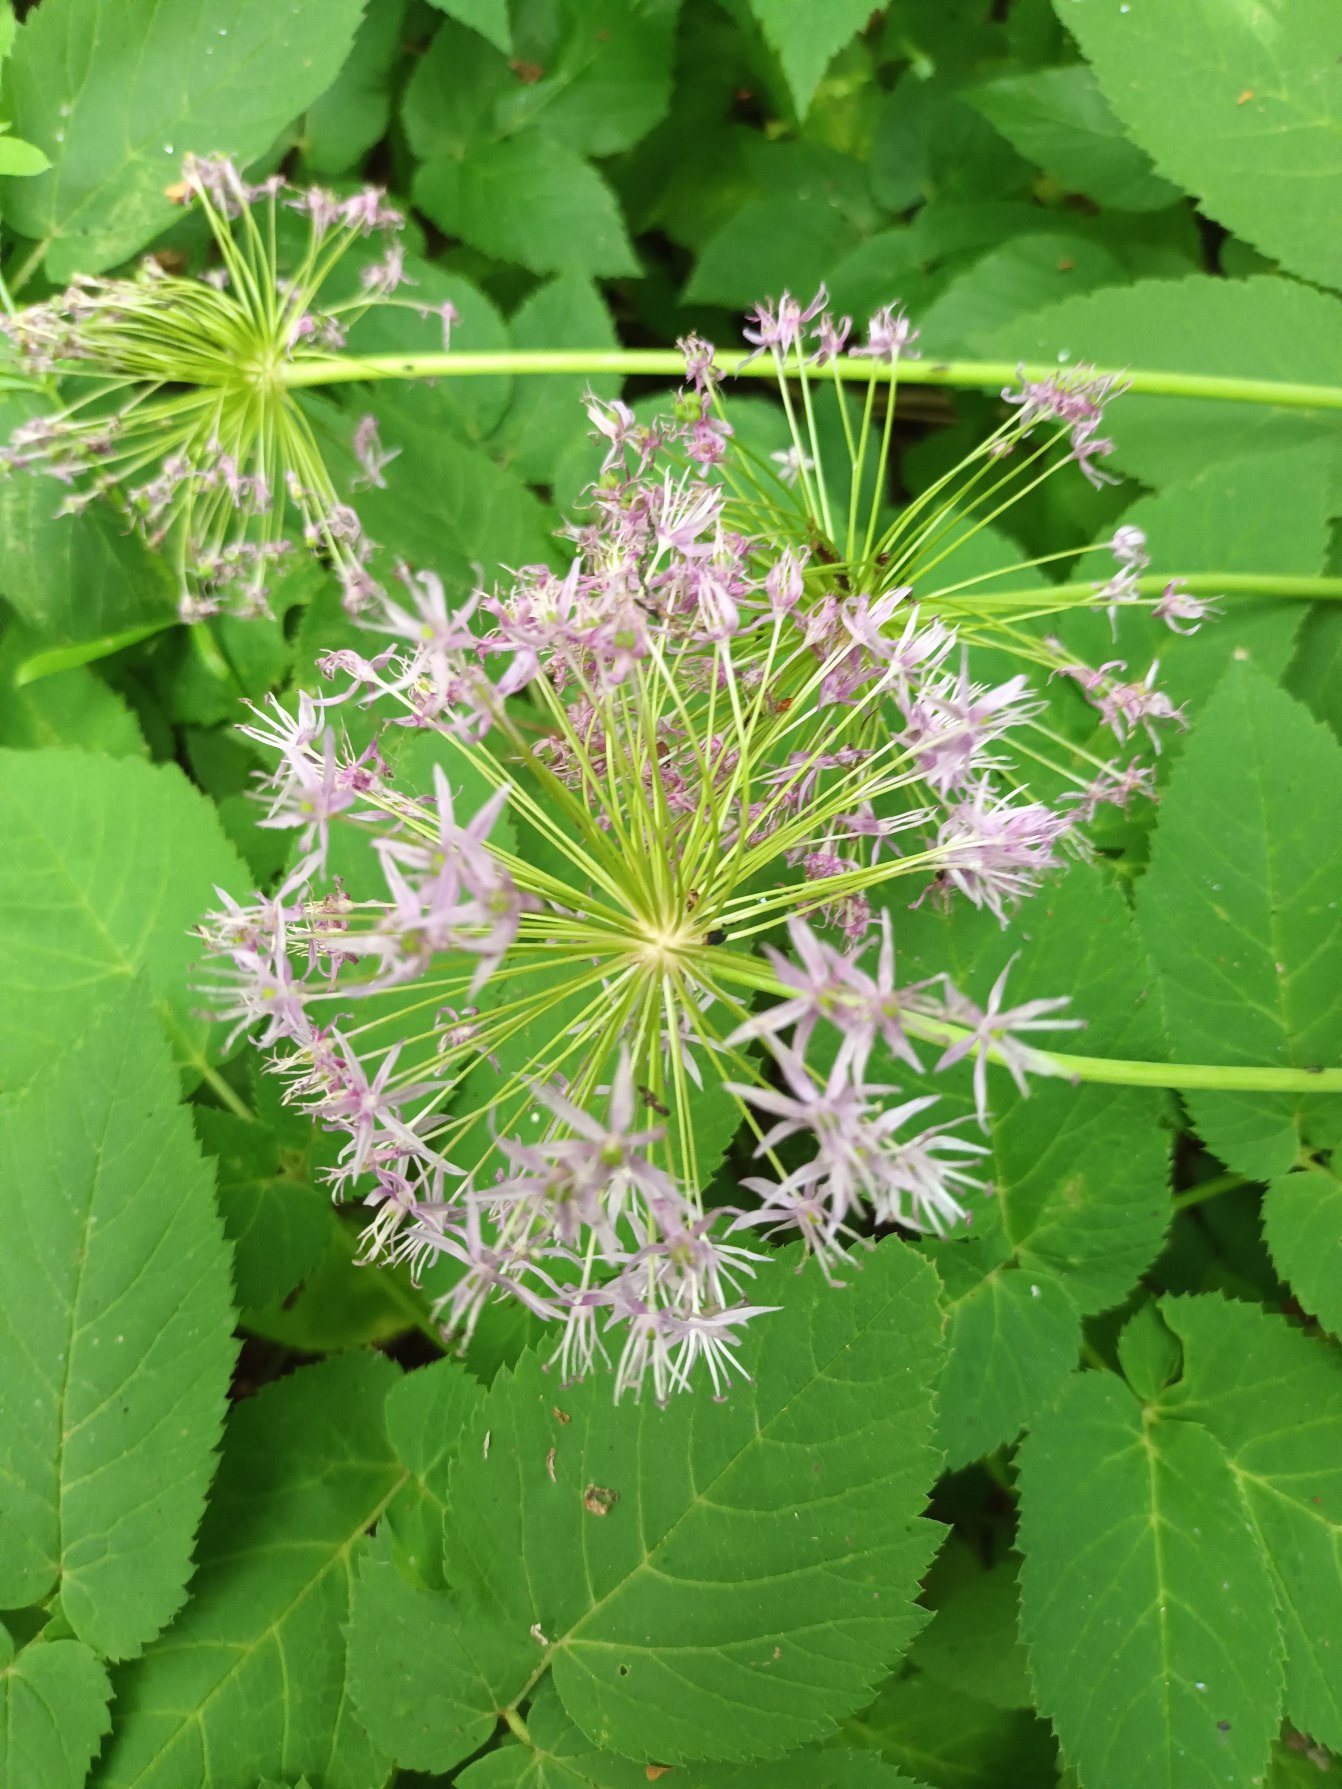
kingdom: Plantae
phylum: Tracheophyta
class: Liliopsida
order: Asparagales
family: Amaryllidaceae
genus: Allium
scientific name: Allium hollandicum
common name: Kirgisisk pryd-løg
